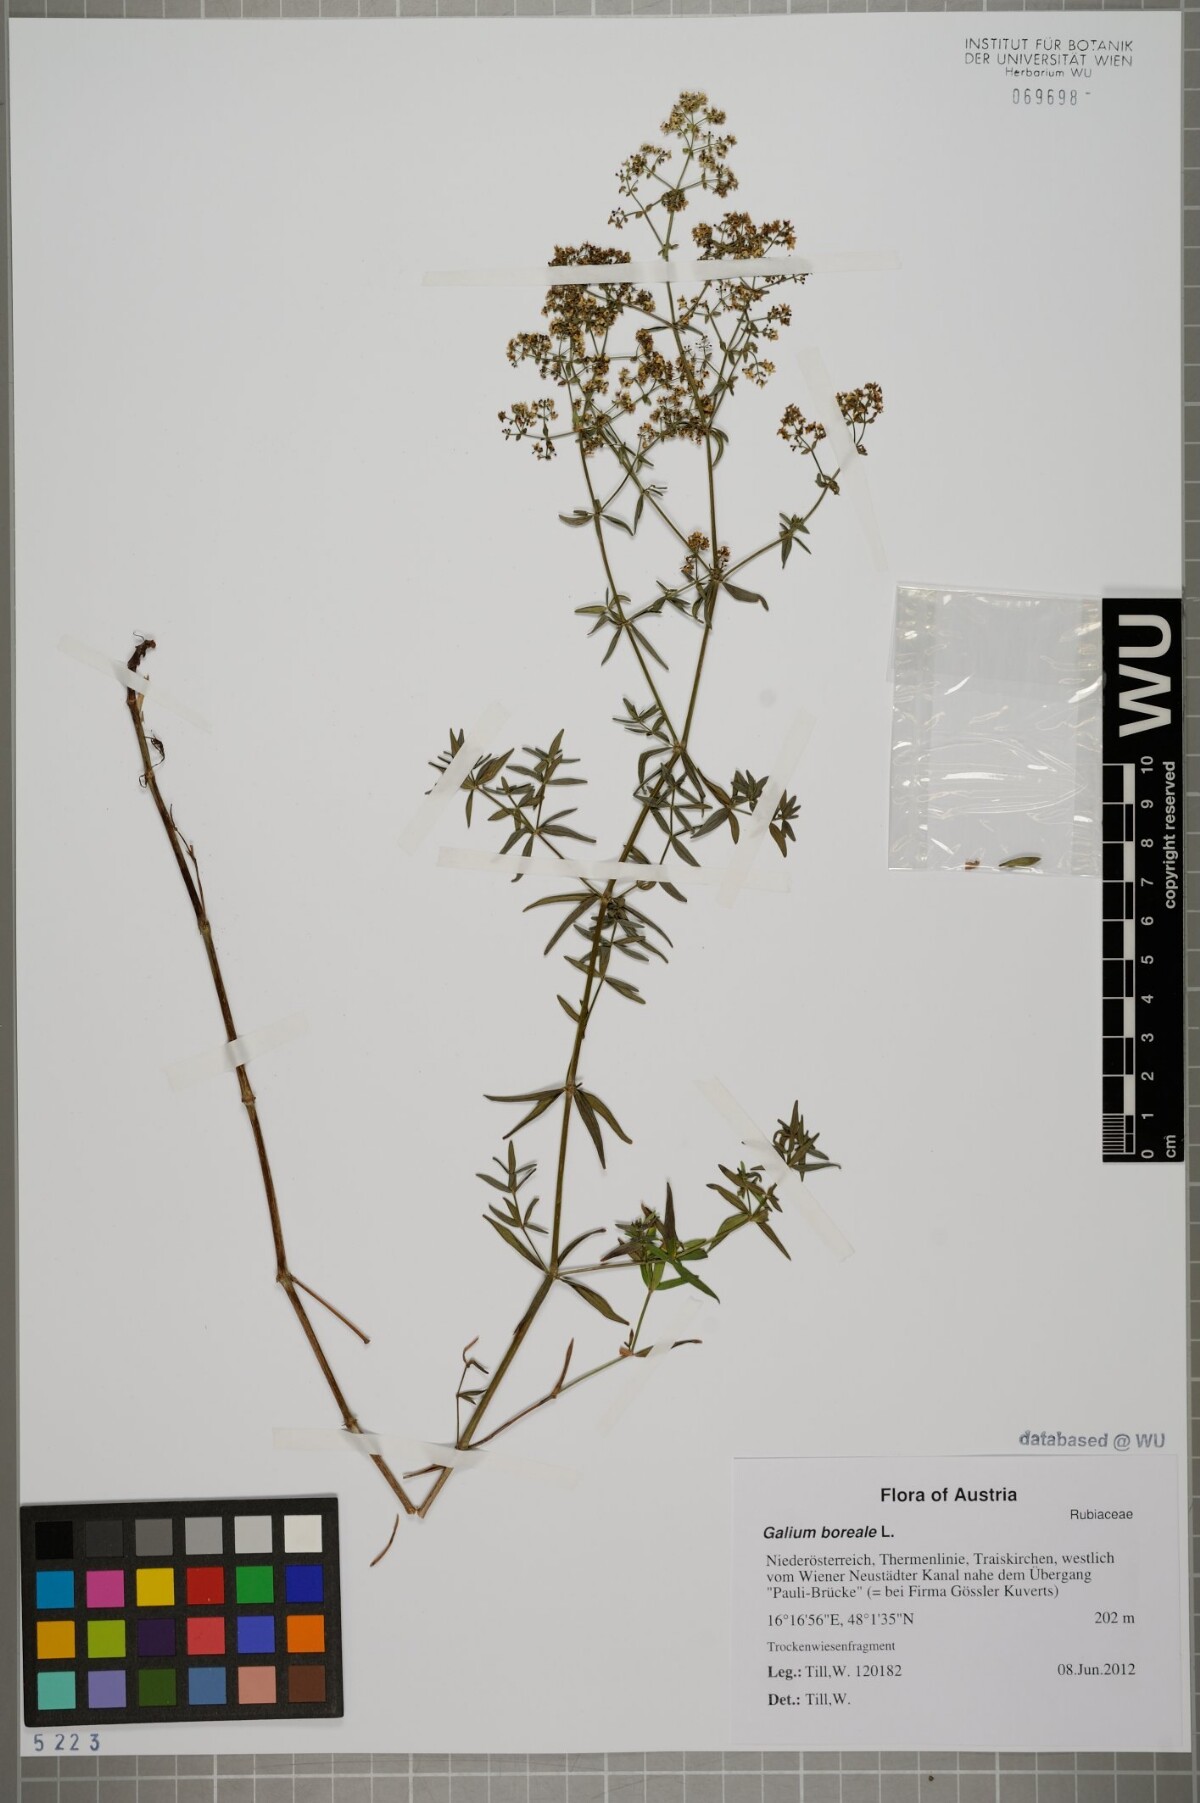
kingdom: Plantae
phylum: Tracheophyta
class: Magnoliopsida
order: Gentianales
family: Rubiaceae
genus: Galium
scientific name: Galium boreale
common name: Northern bedstraw
